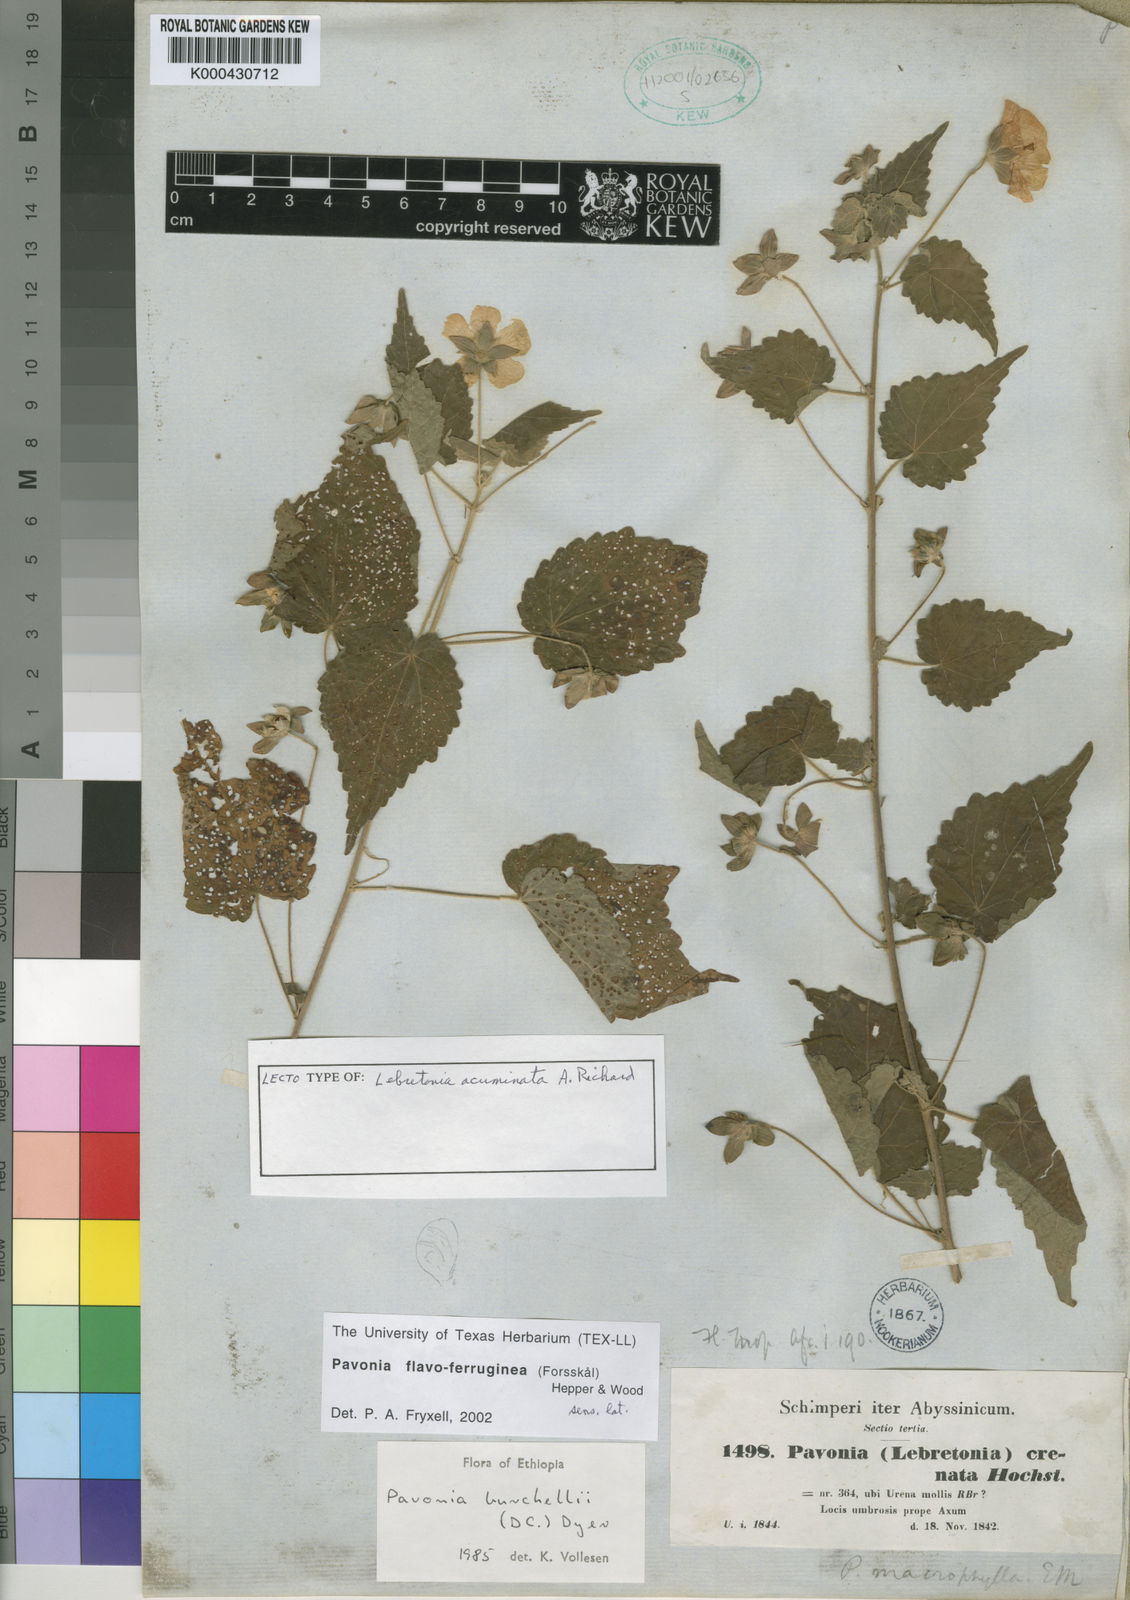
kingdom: Plantae
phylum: Tracheophyta
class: Magnoliopsida
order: Malvales
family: Malvaceae
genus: Pavonia
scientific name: Pavonia burchellii
